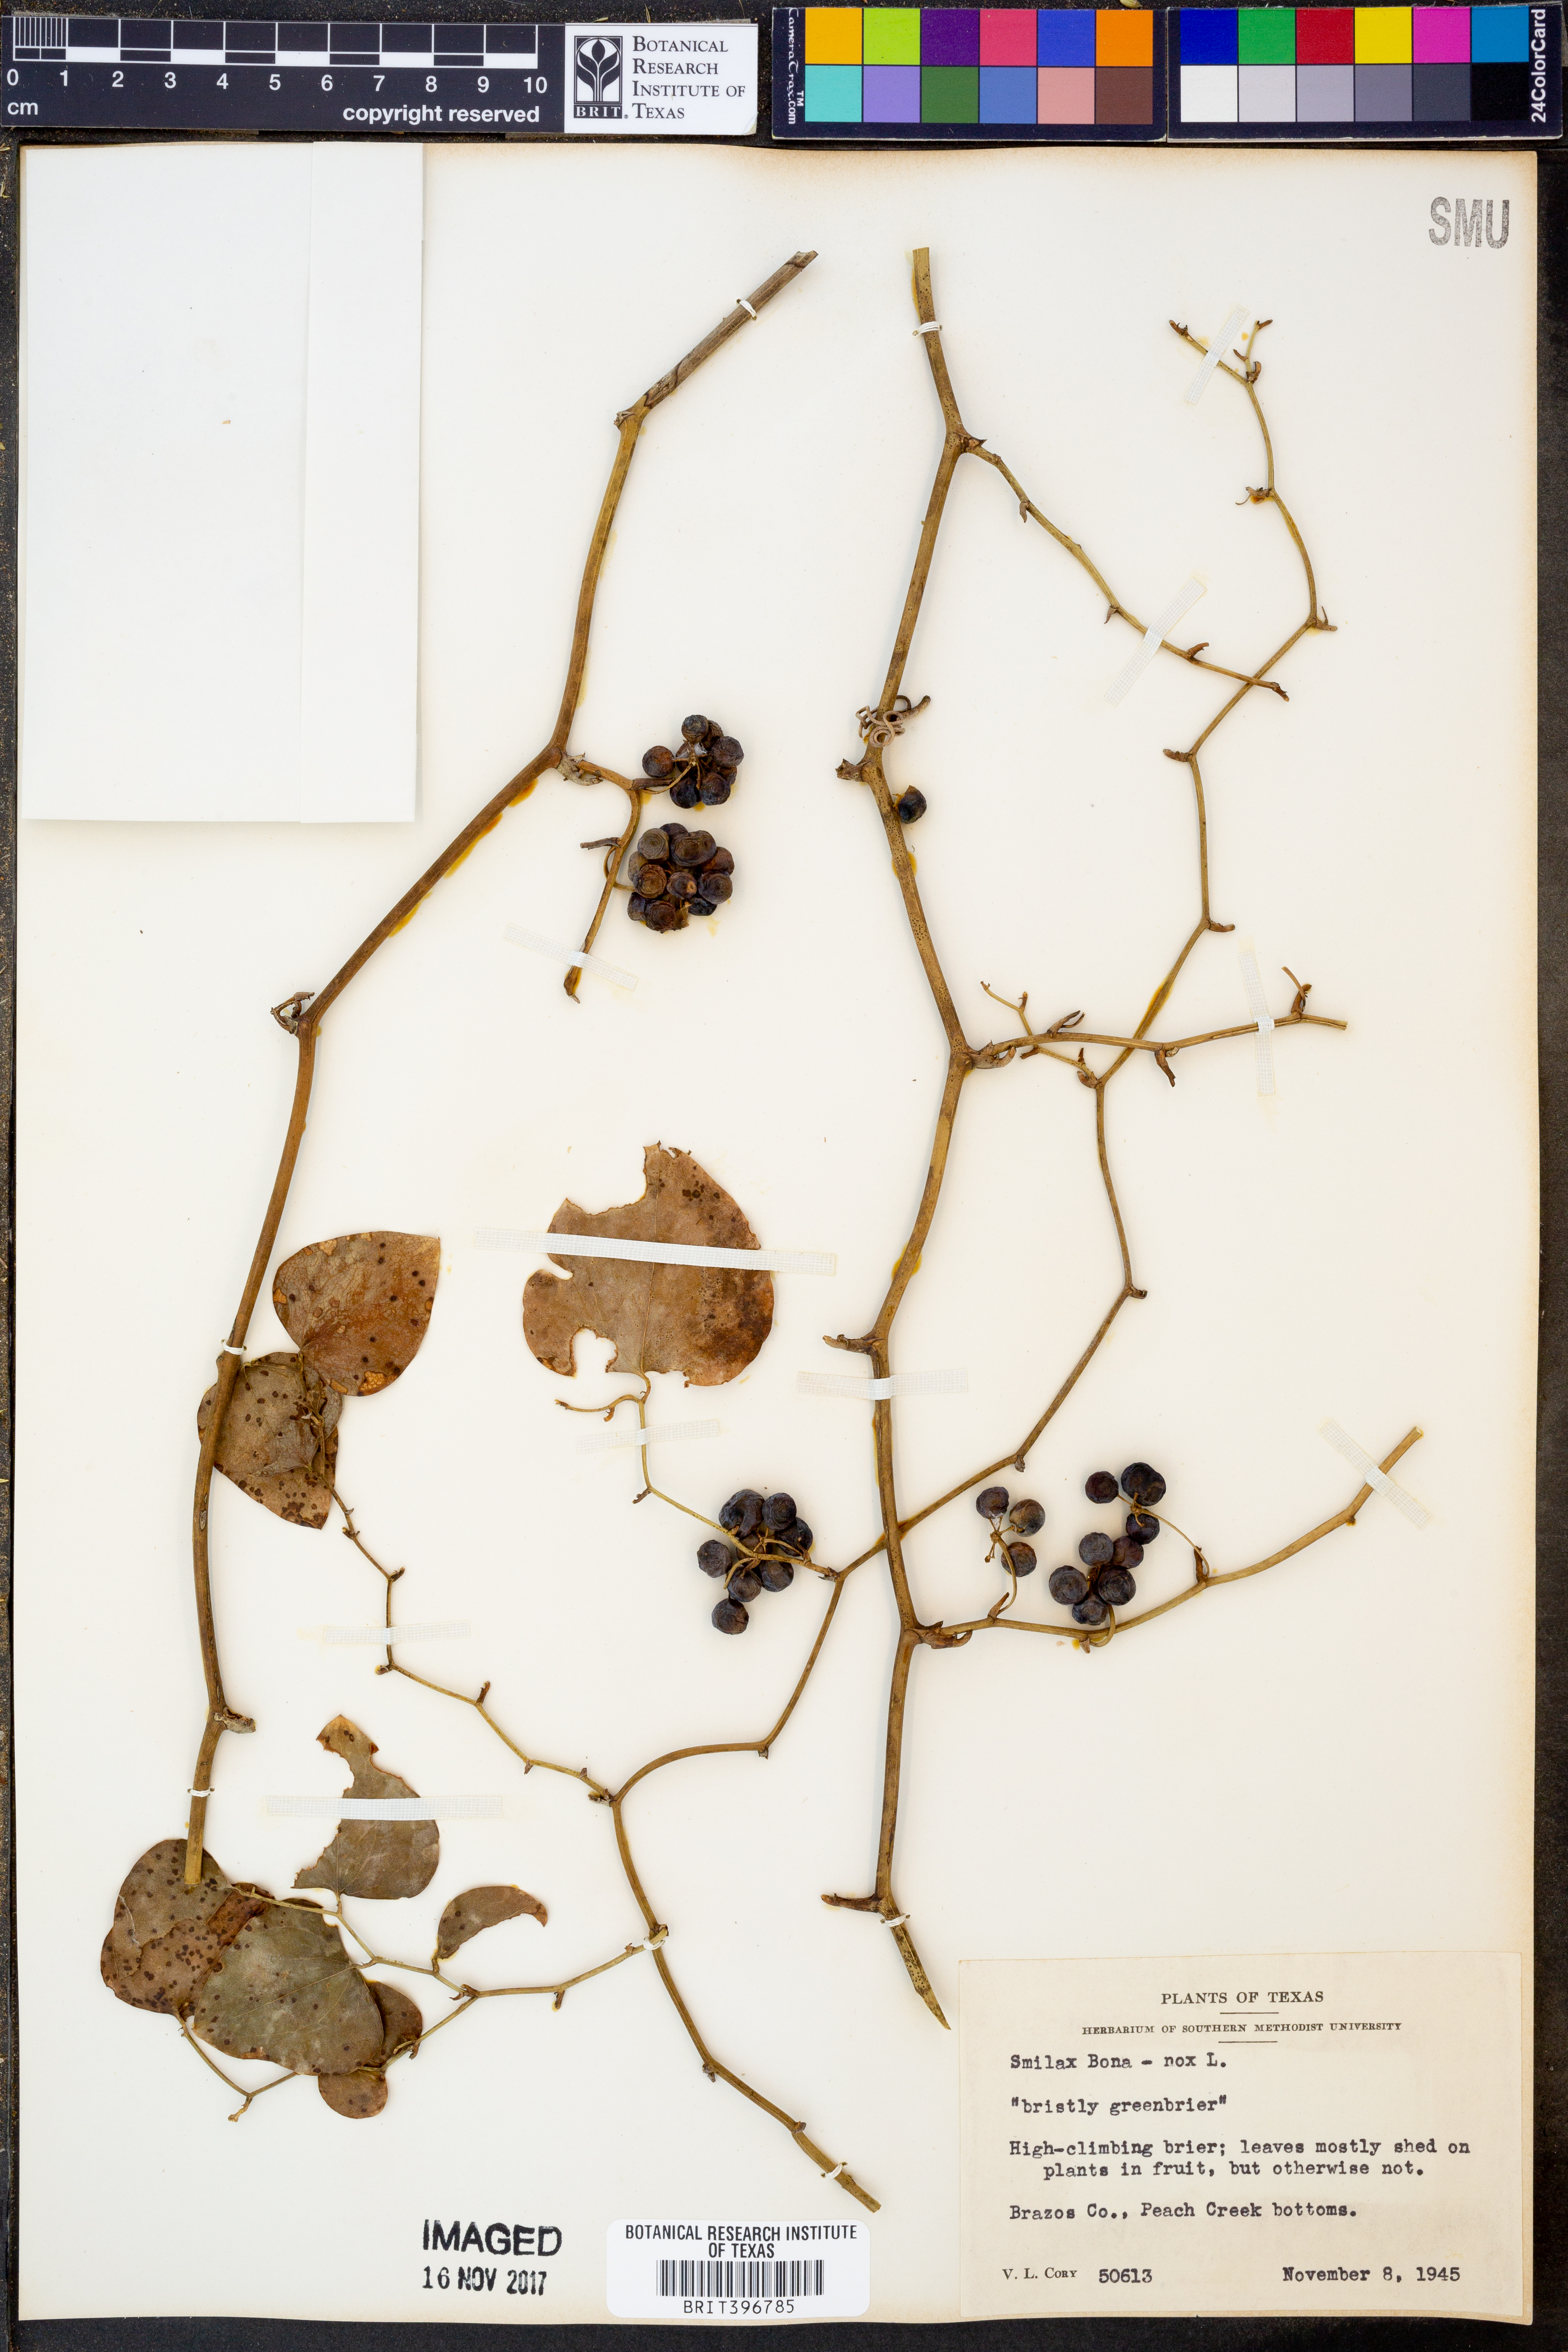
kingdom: Plantae
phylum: Tracheophyta
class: Liliopsida
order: Liliales
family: Smilacaceae
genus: Smilax
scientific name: Smilax bona-nox
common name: Catbrier
